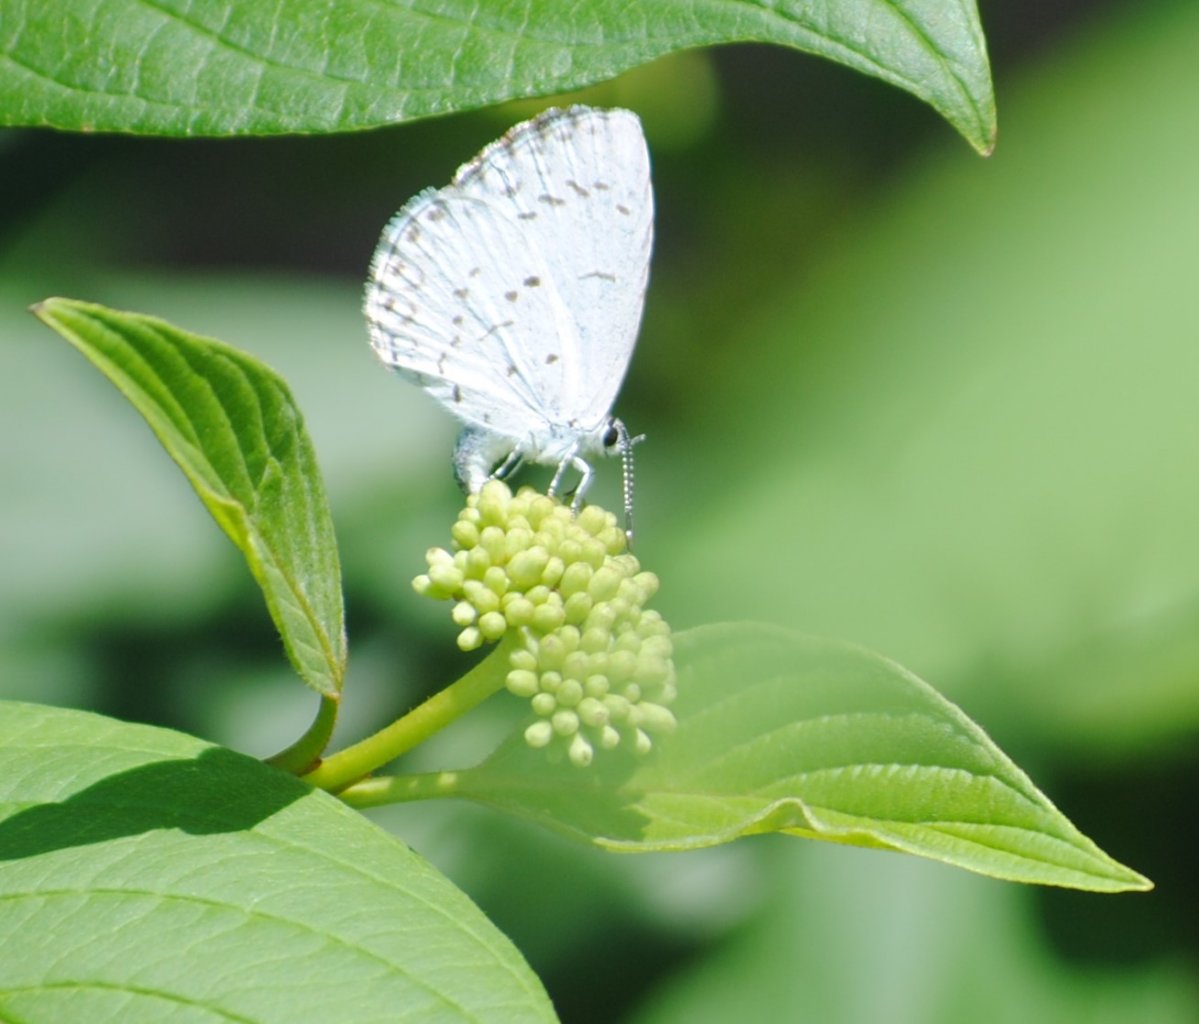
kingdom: Animalia
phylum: Arthropoda
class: Insecta
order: Lepidoptera
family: Lycaenidae
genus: Celastrina
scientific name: Celastrina
